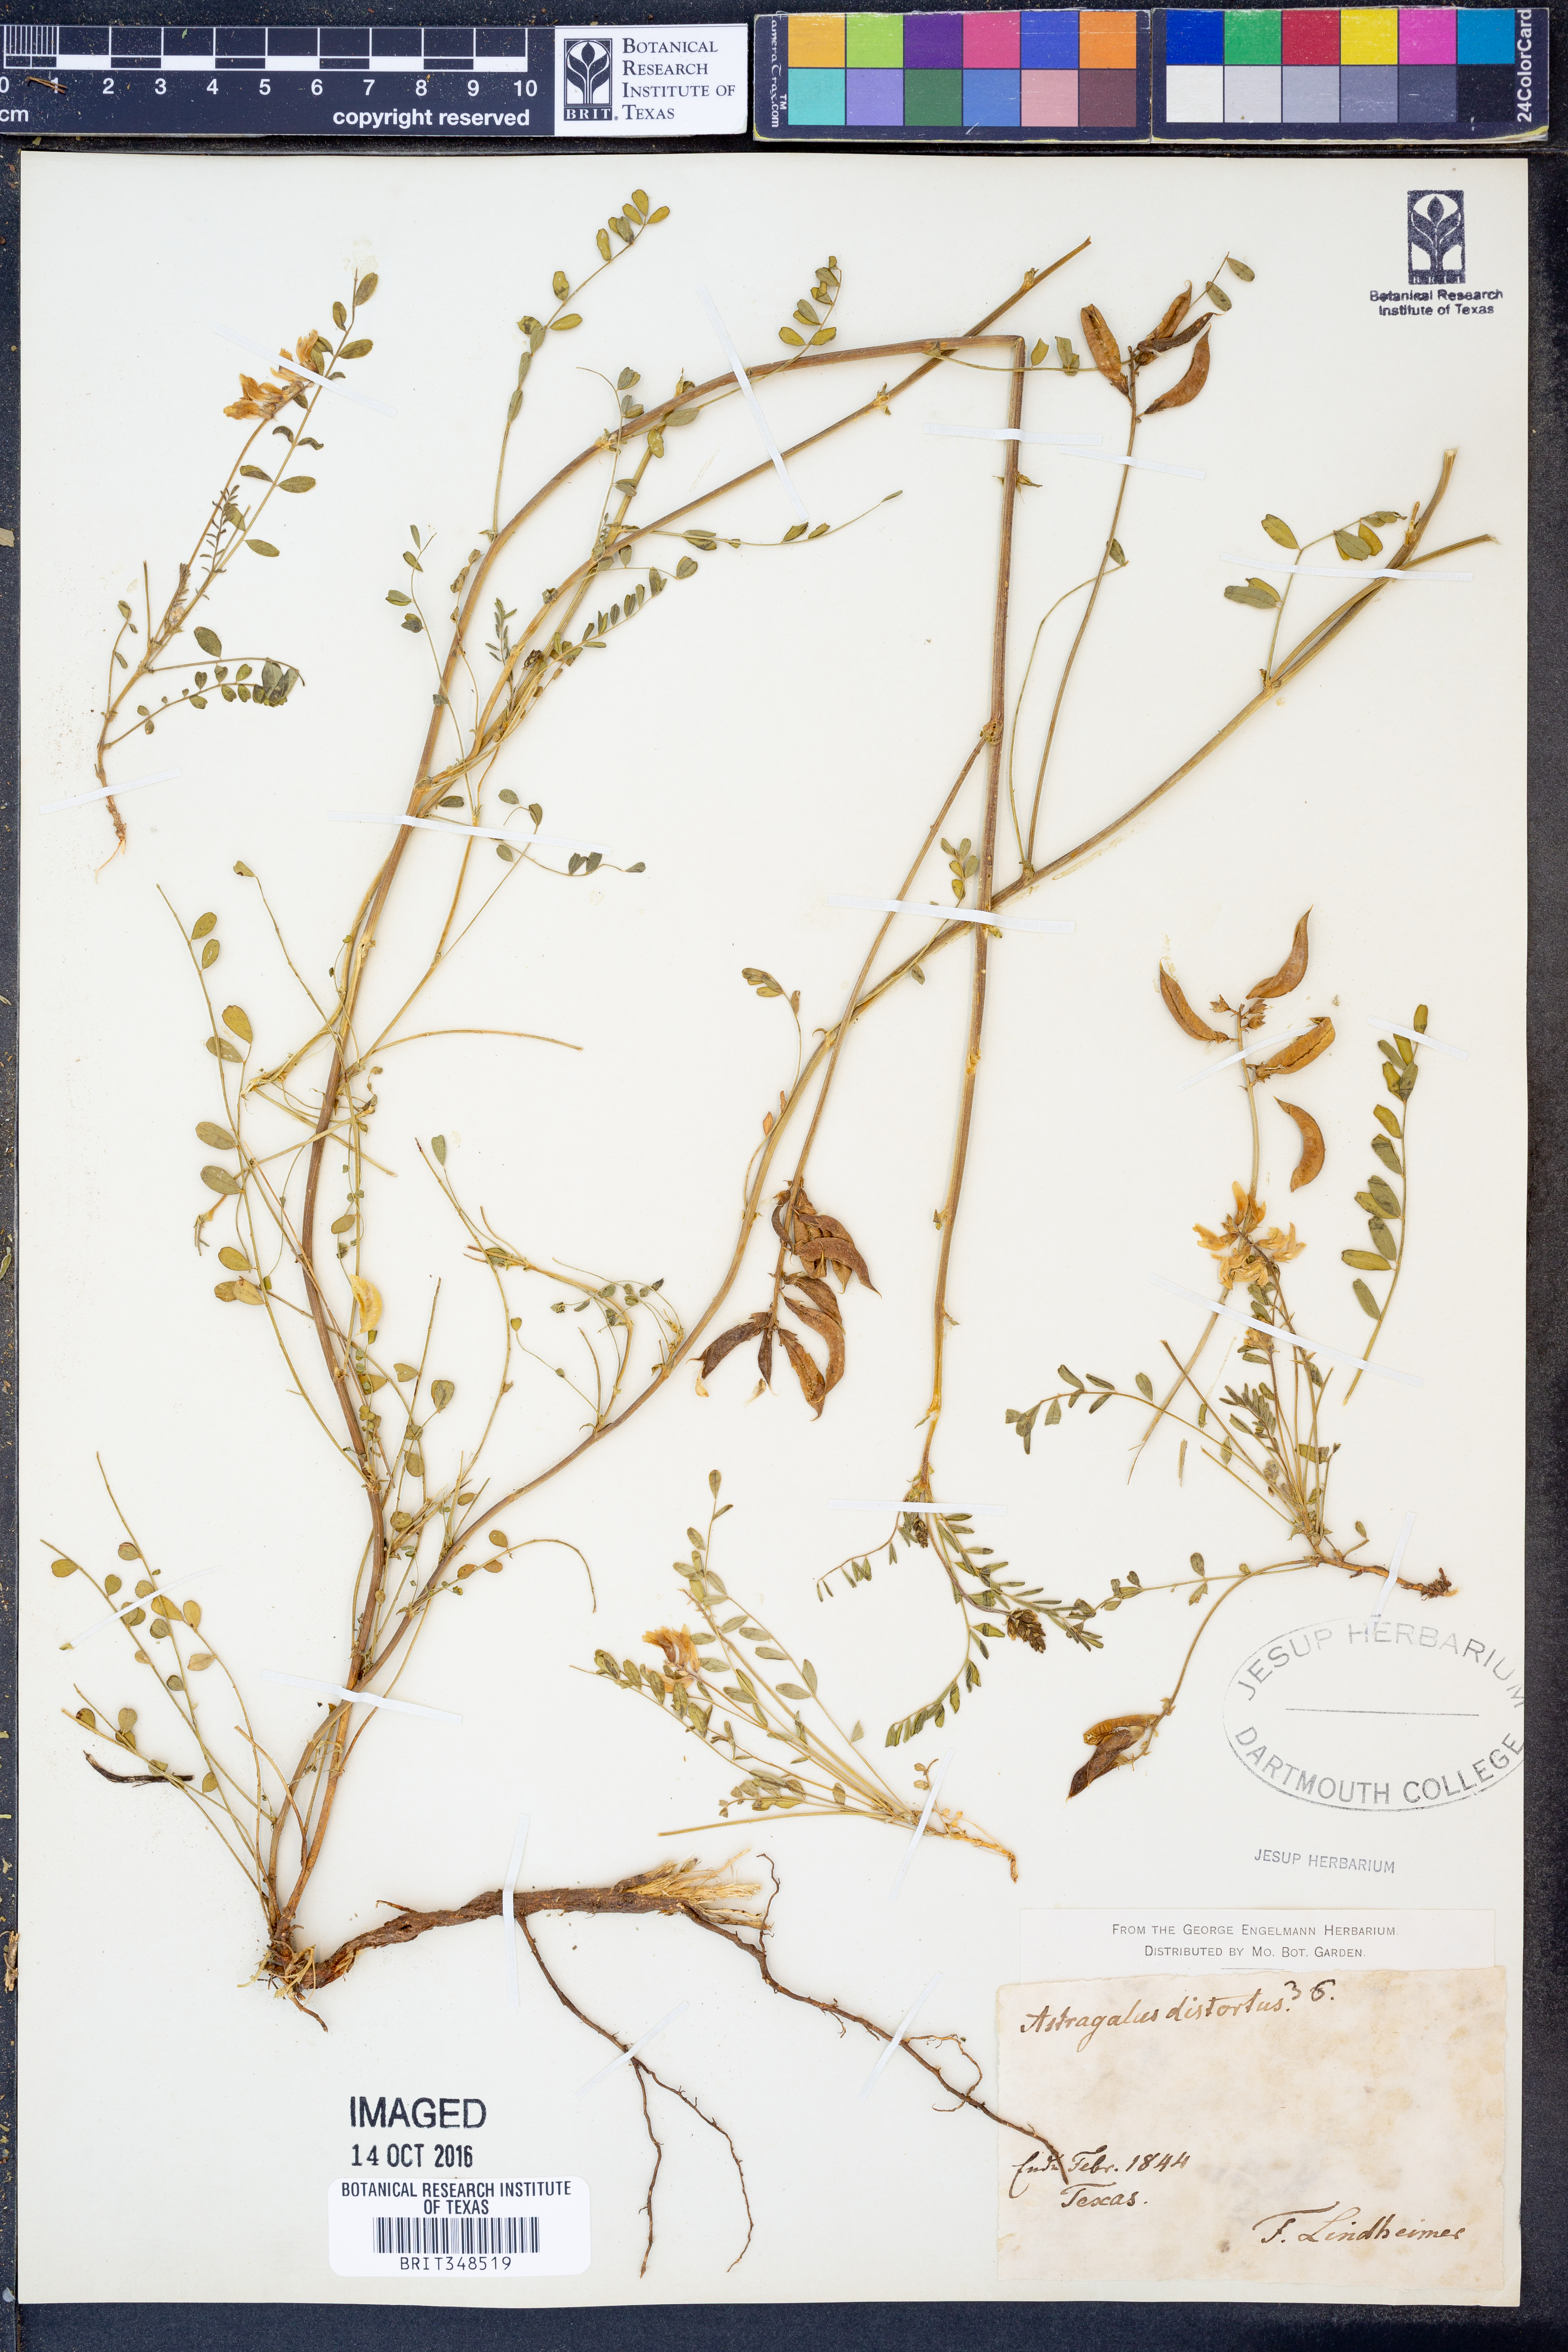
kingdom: Plantae
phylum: Tracheophyta
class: Magnoliopsida
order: Fabales
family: Fabaceae
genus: Astragalus
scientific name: Astragalus distortus
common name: Ozark milk-vetch
